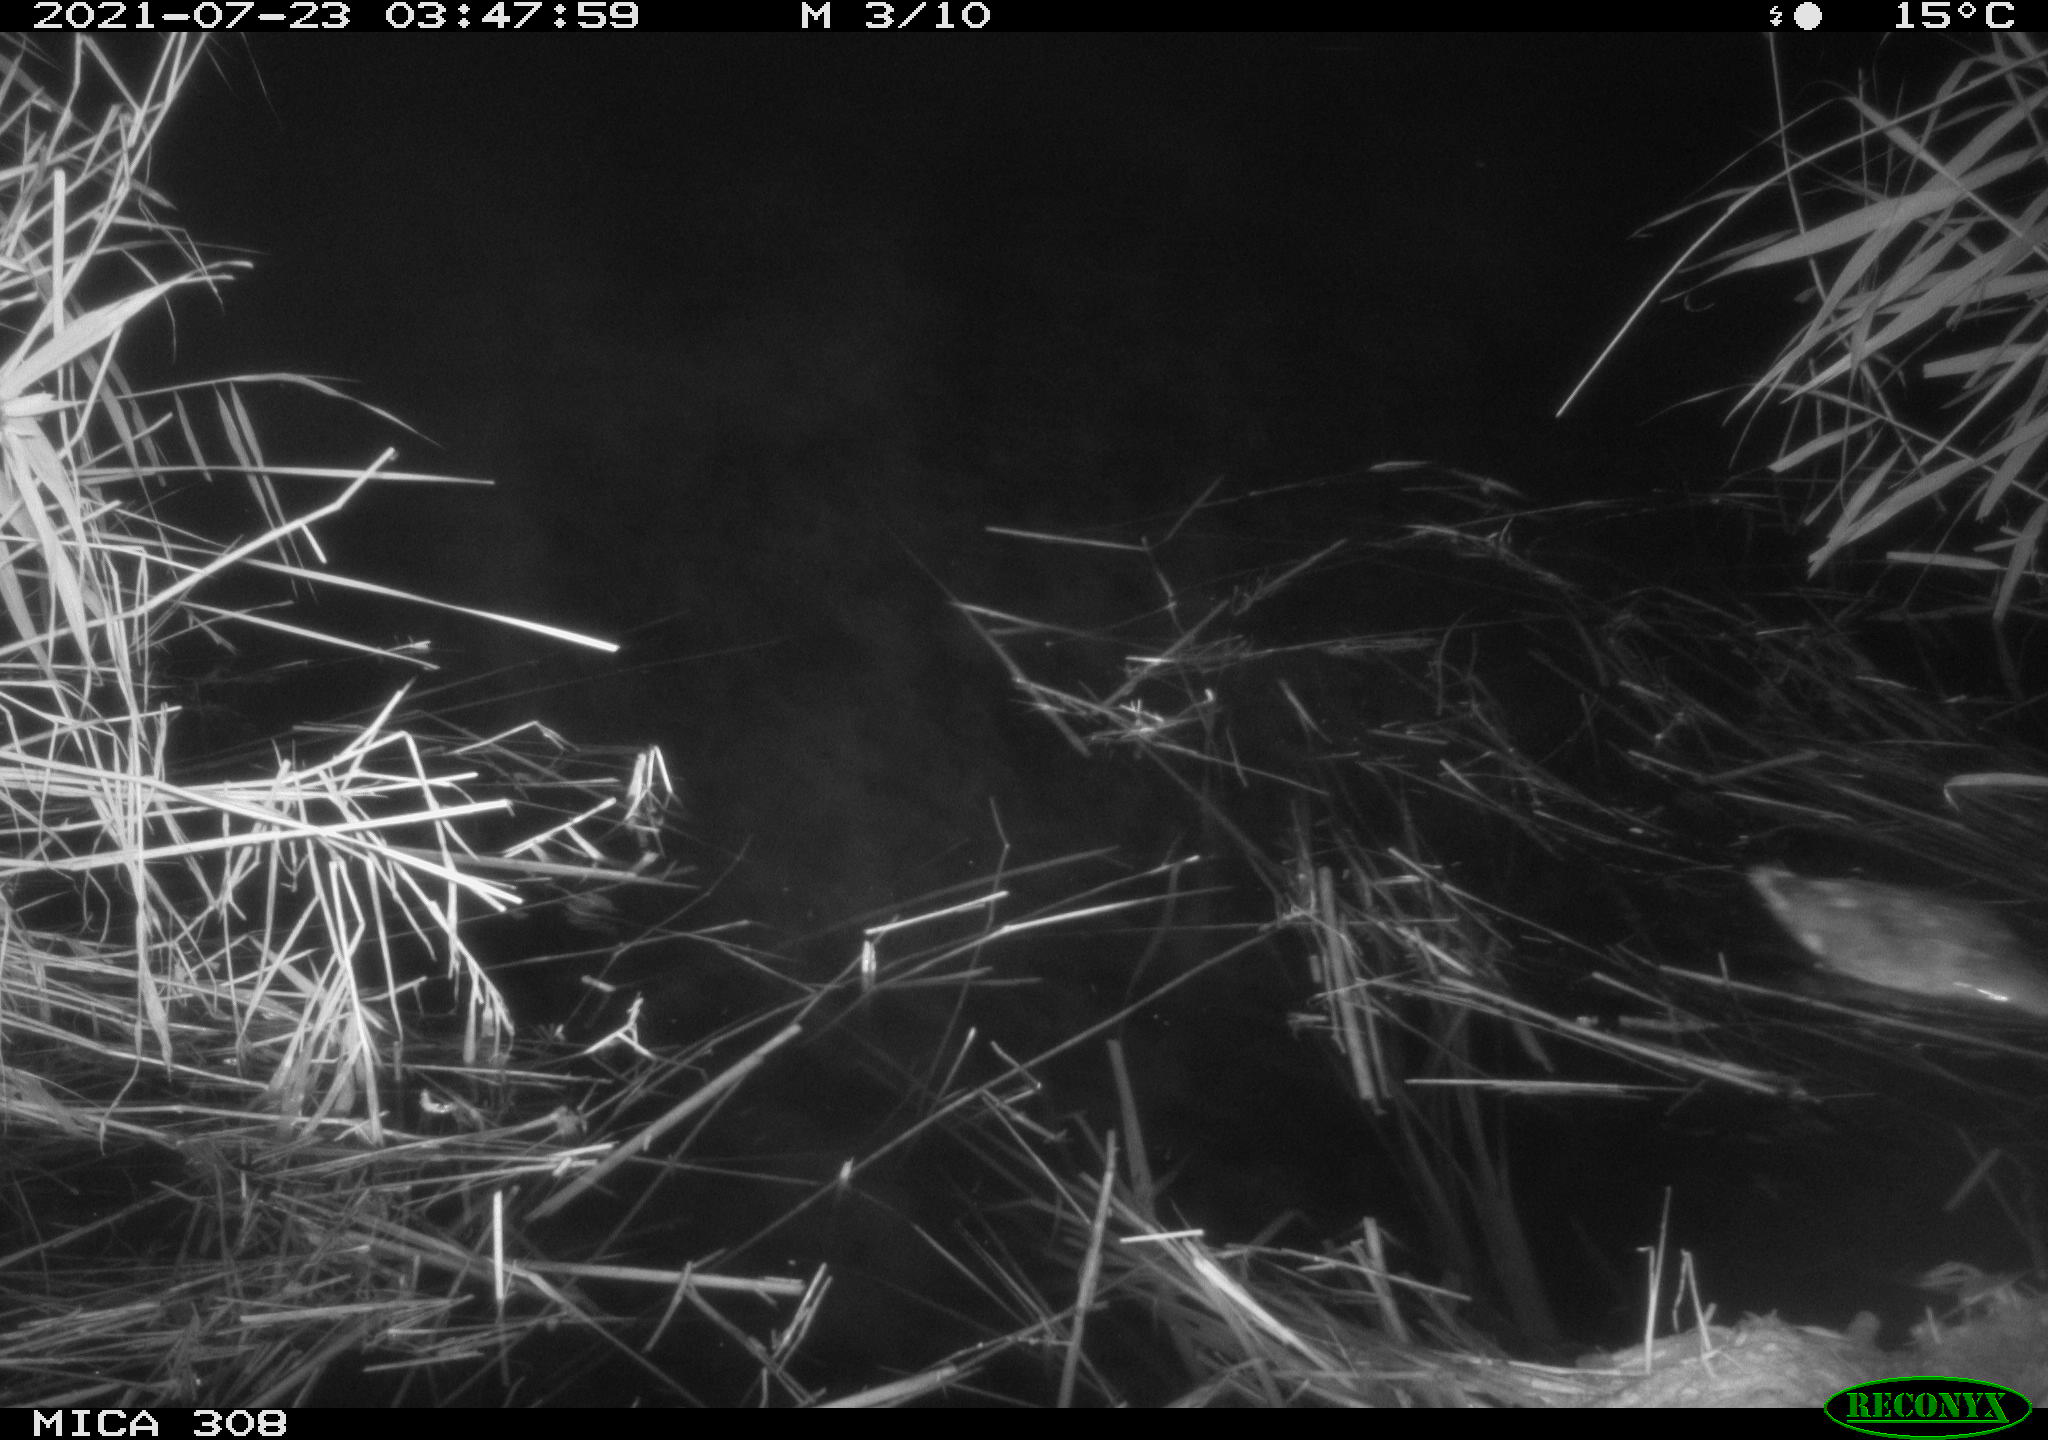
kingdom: Animalia
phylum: Chordata
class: Aves
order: Anseriformes
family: Anatidae
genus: Anas
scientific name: Anas platyrhynchos
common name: Mallard
